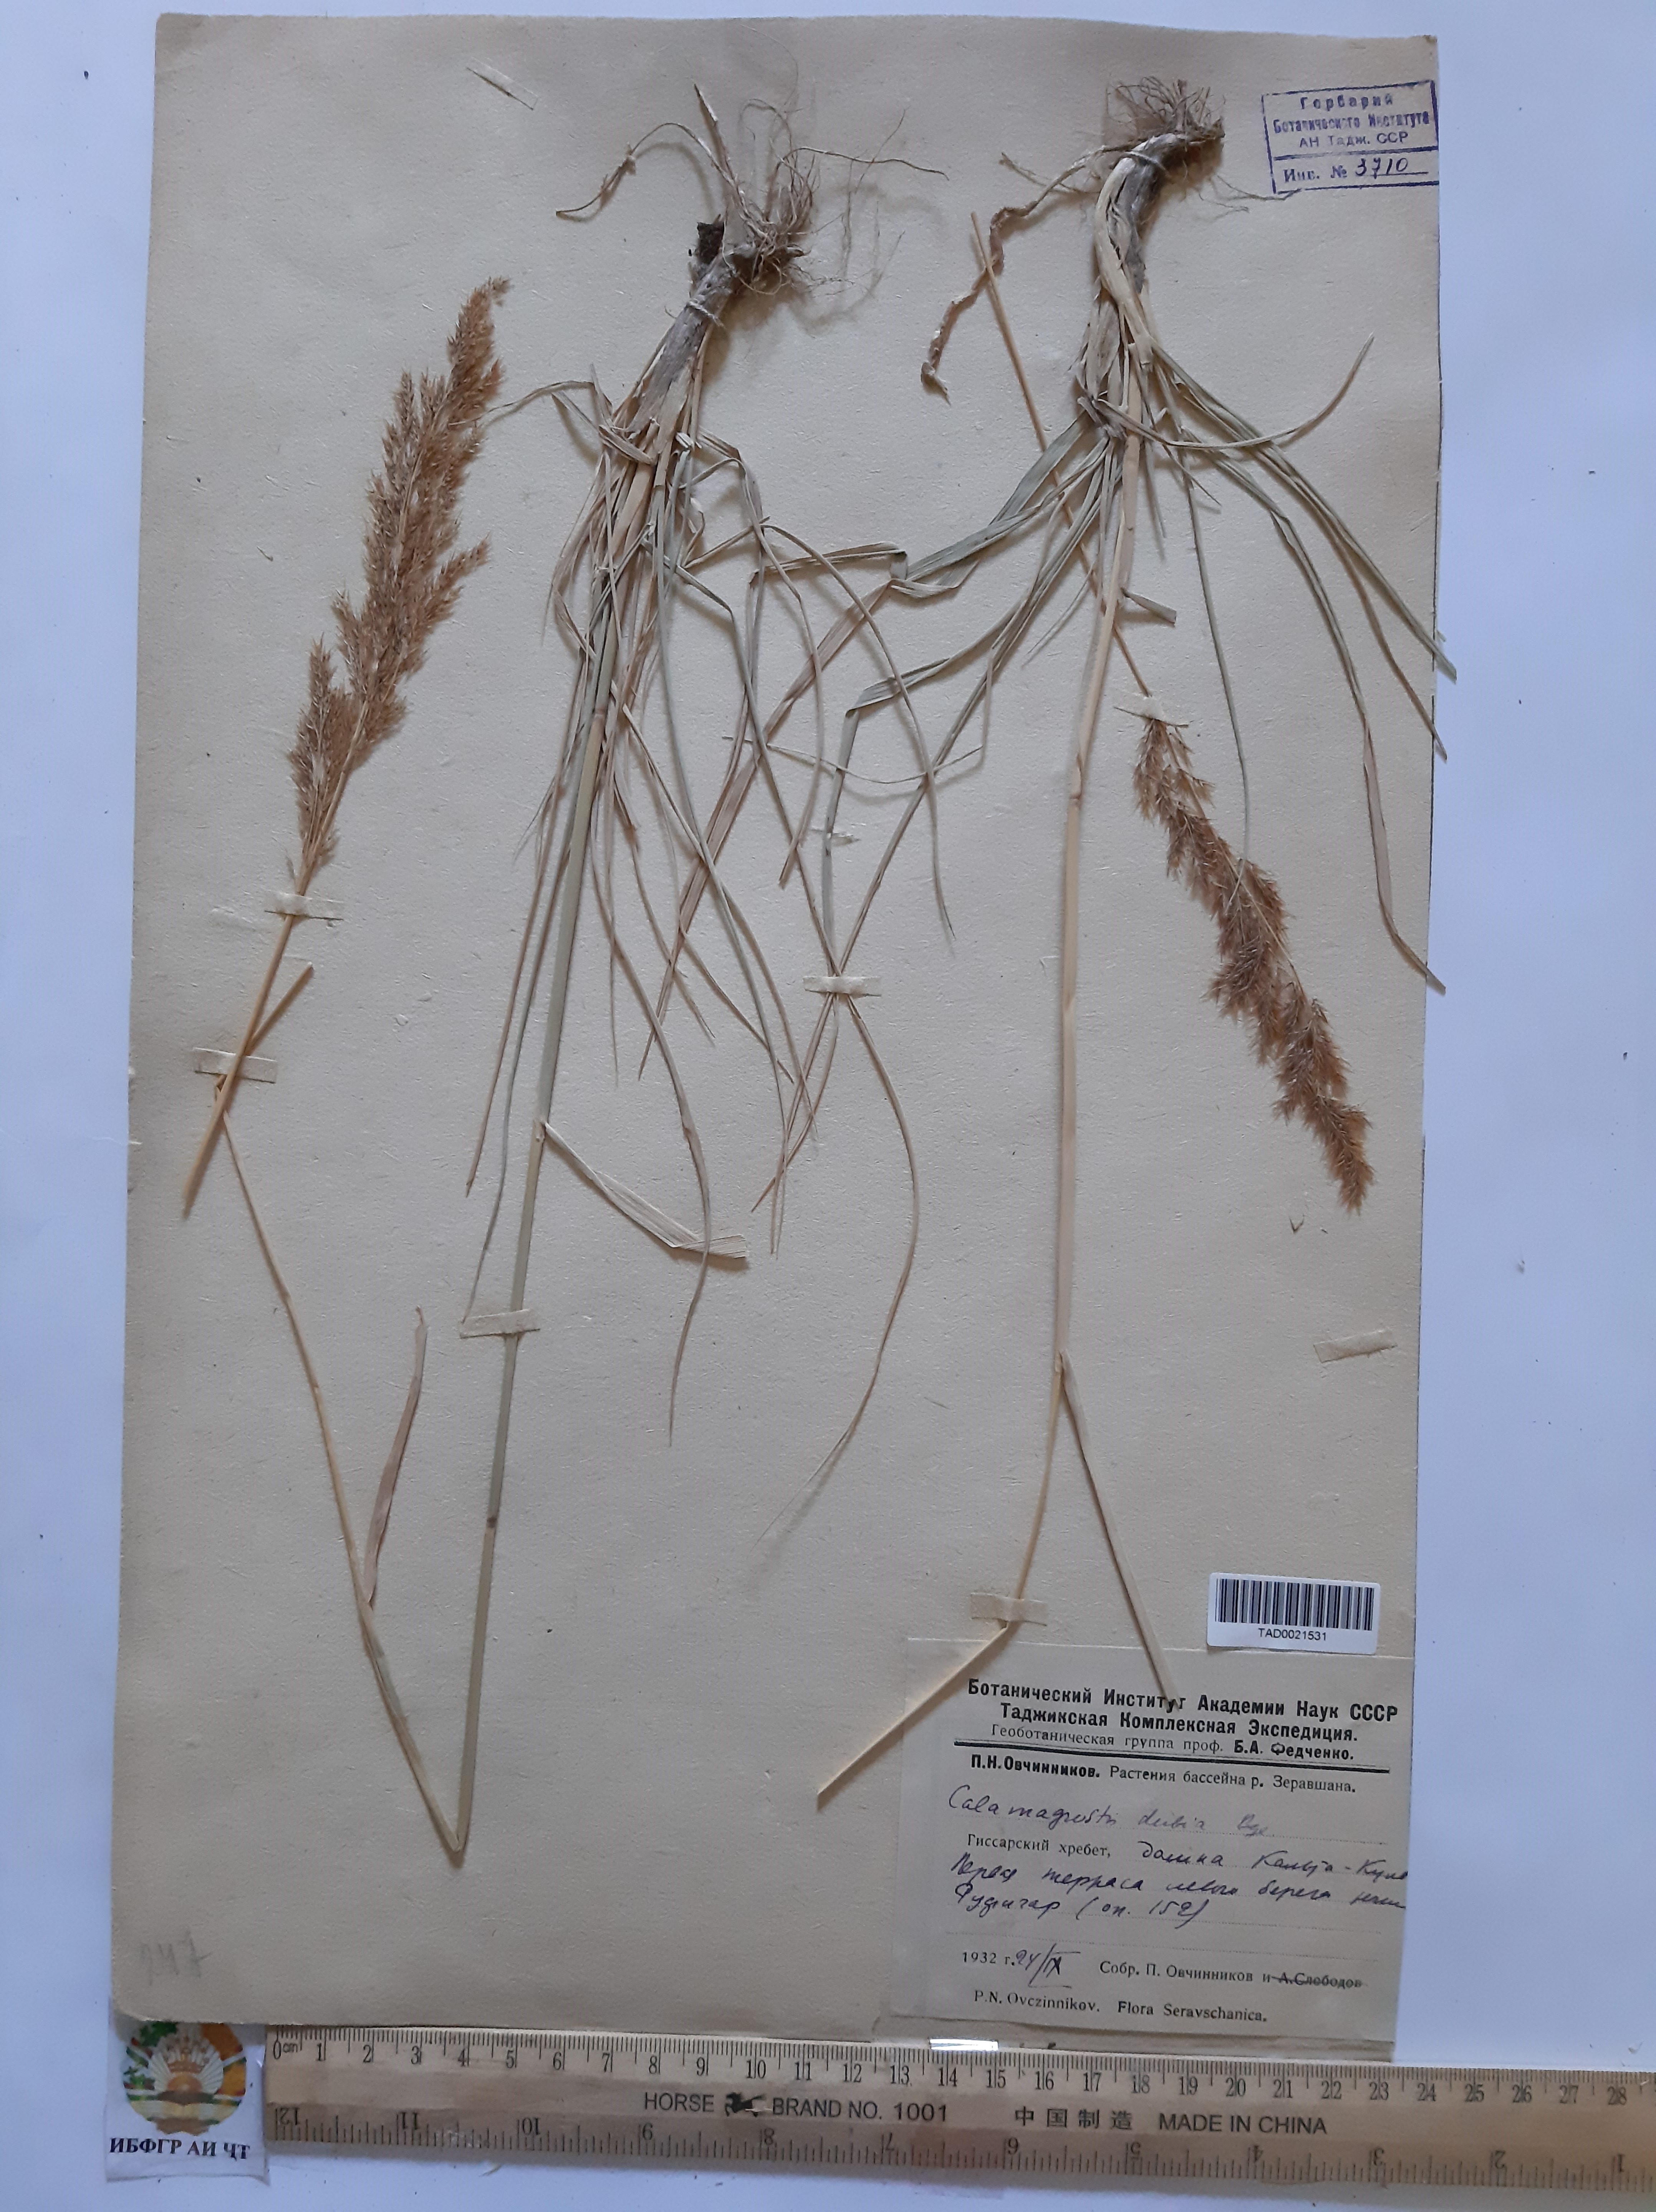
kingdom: Plantae
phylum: Tracheophyta
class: Liliopsida
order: Poales
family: Poaceae
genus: Calamagrostis
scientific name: Calamagrostis pseudophragmites
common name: Coastal small-reed
